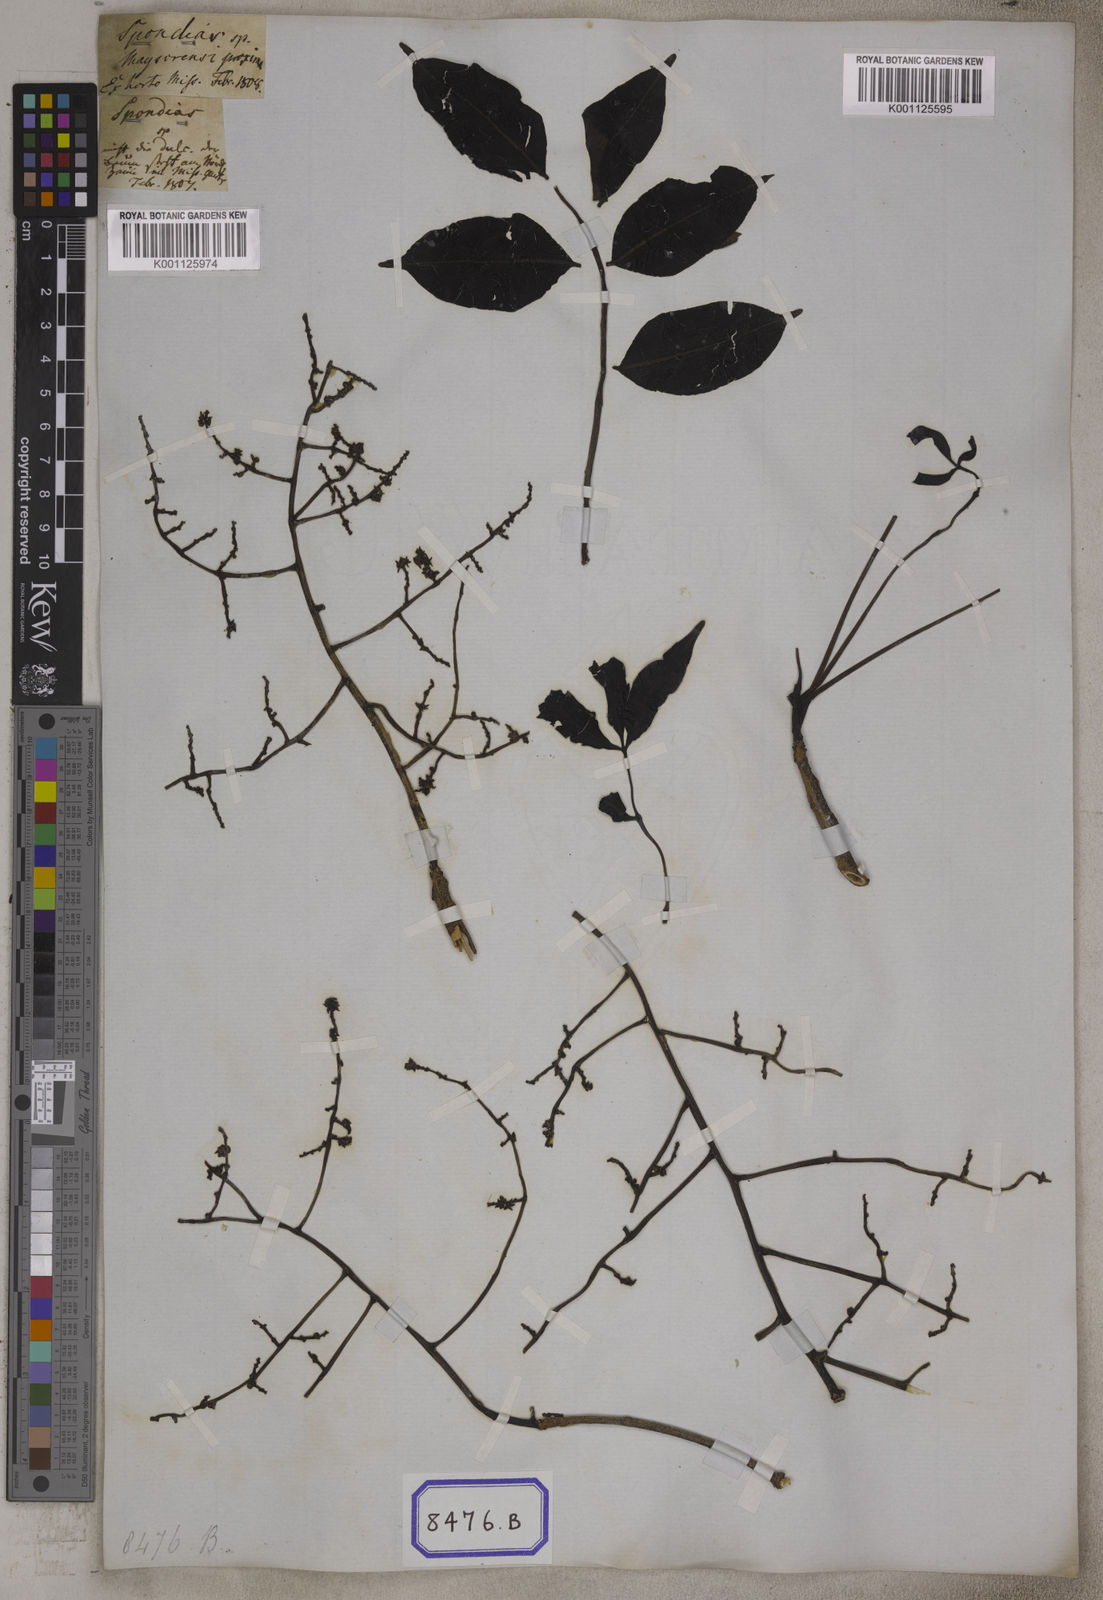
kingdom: Plantae
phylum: Tracheophyta
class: Magnoliopsida
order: Sapindales
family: Anacardiaceae
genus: Spondias
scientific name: Spondias
